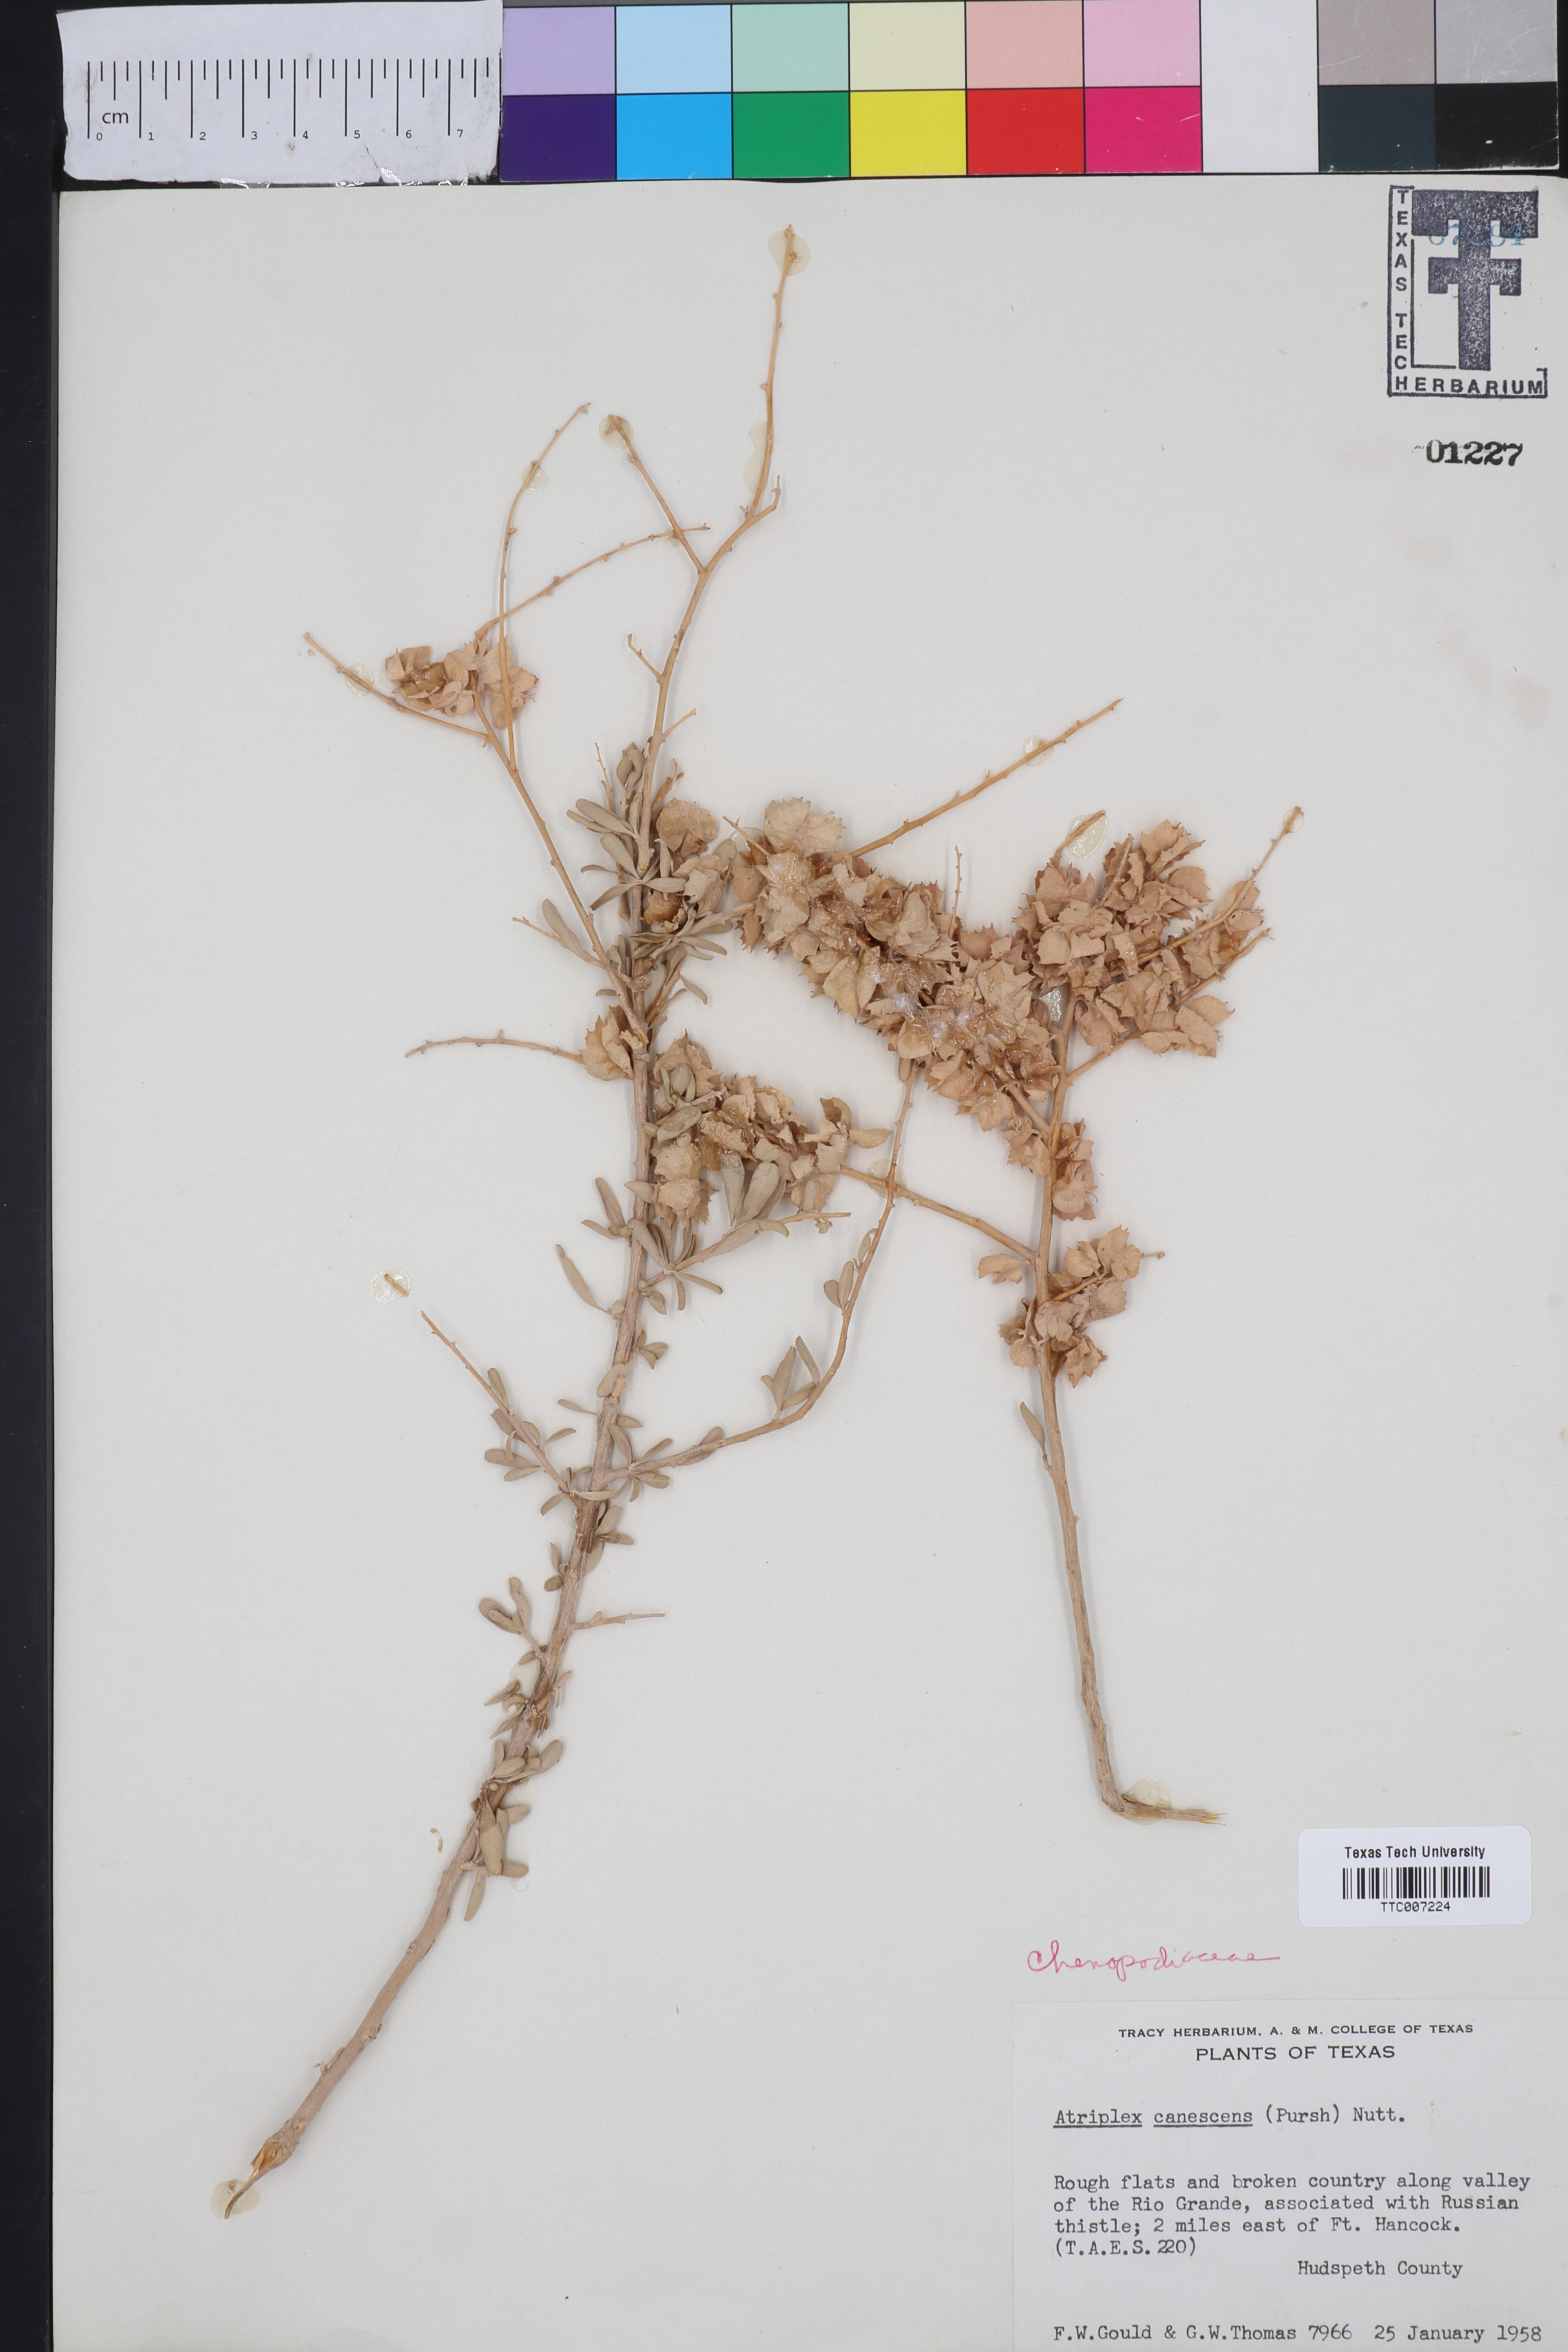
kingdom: Plantae
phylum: Tracheophyta
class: Magnoliopsida
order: Caryophyllales
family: Amaranthaceae
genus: Atriplex
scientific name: Atriplex canescens
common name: Four-wing saltbush
